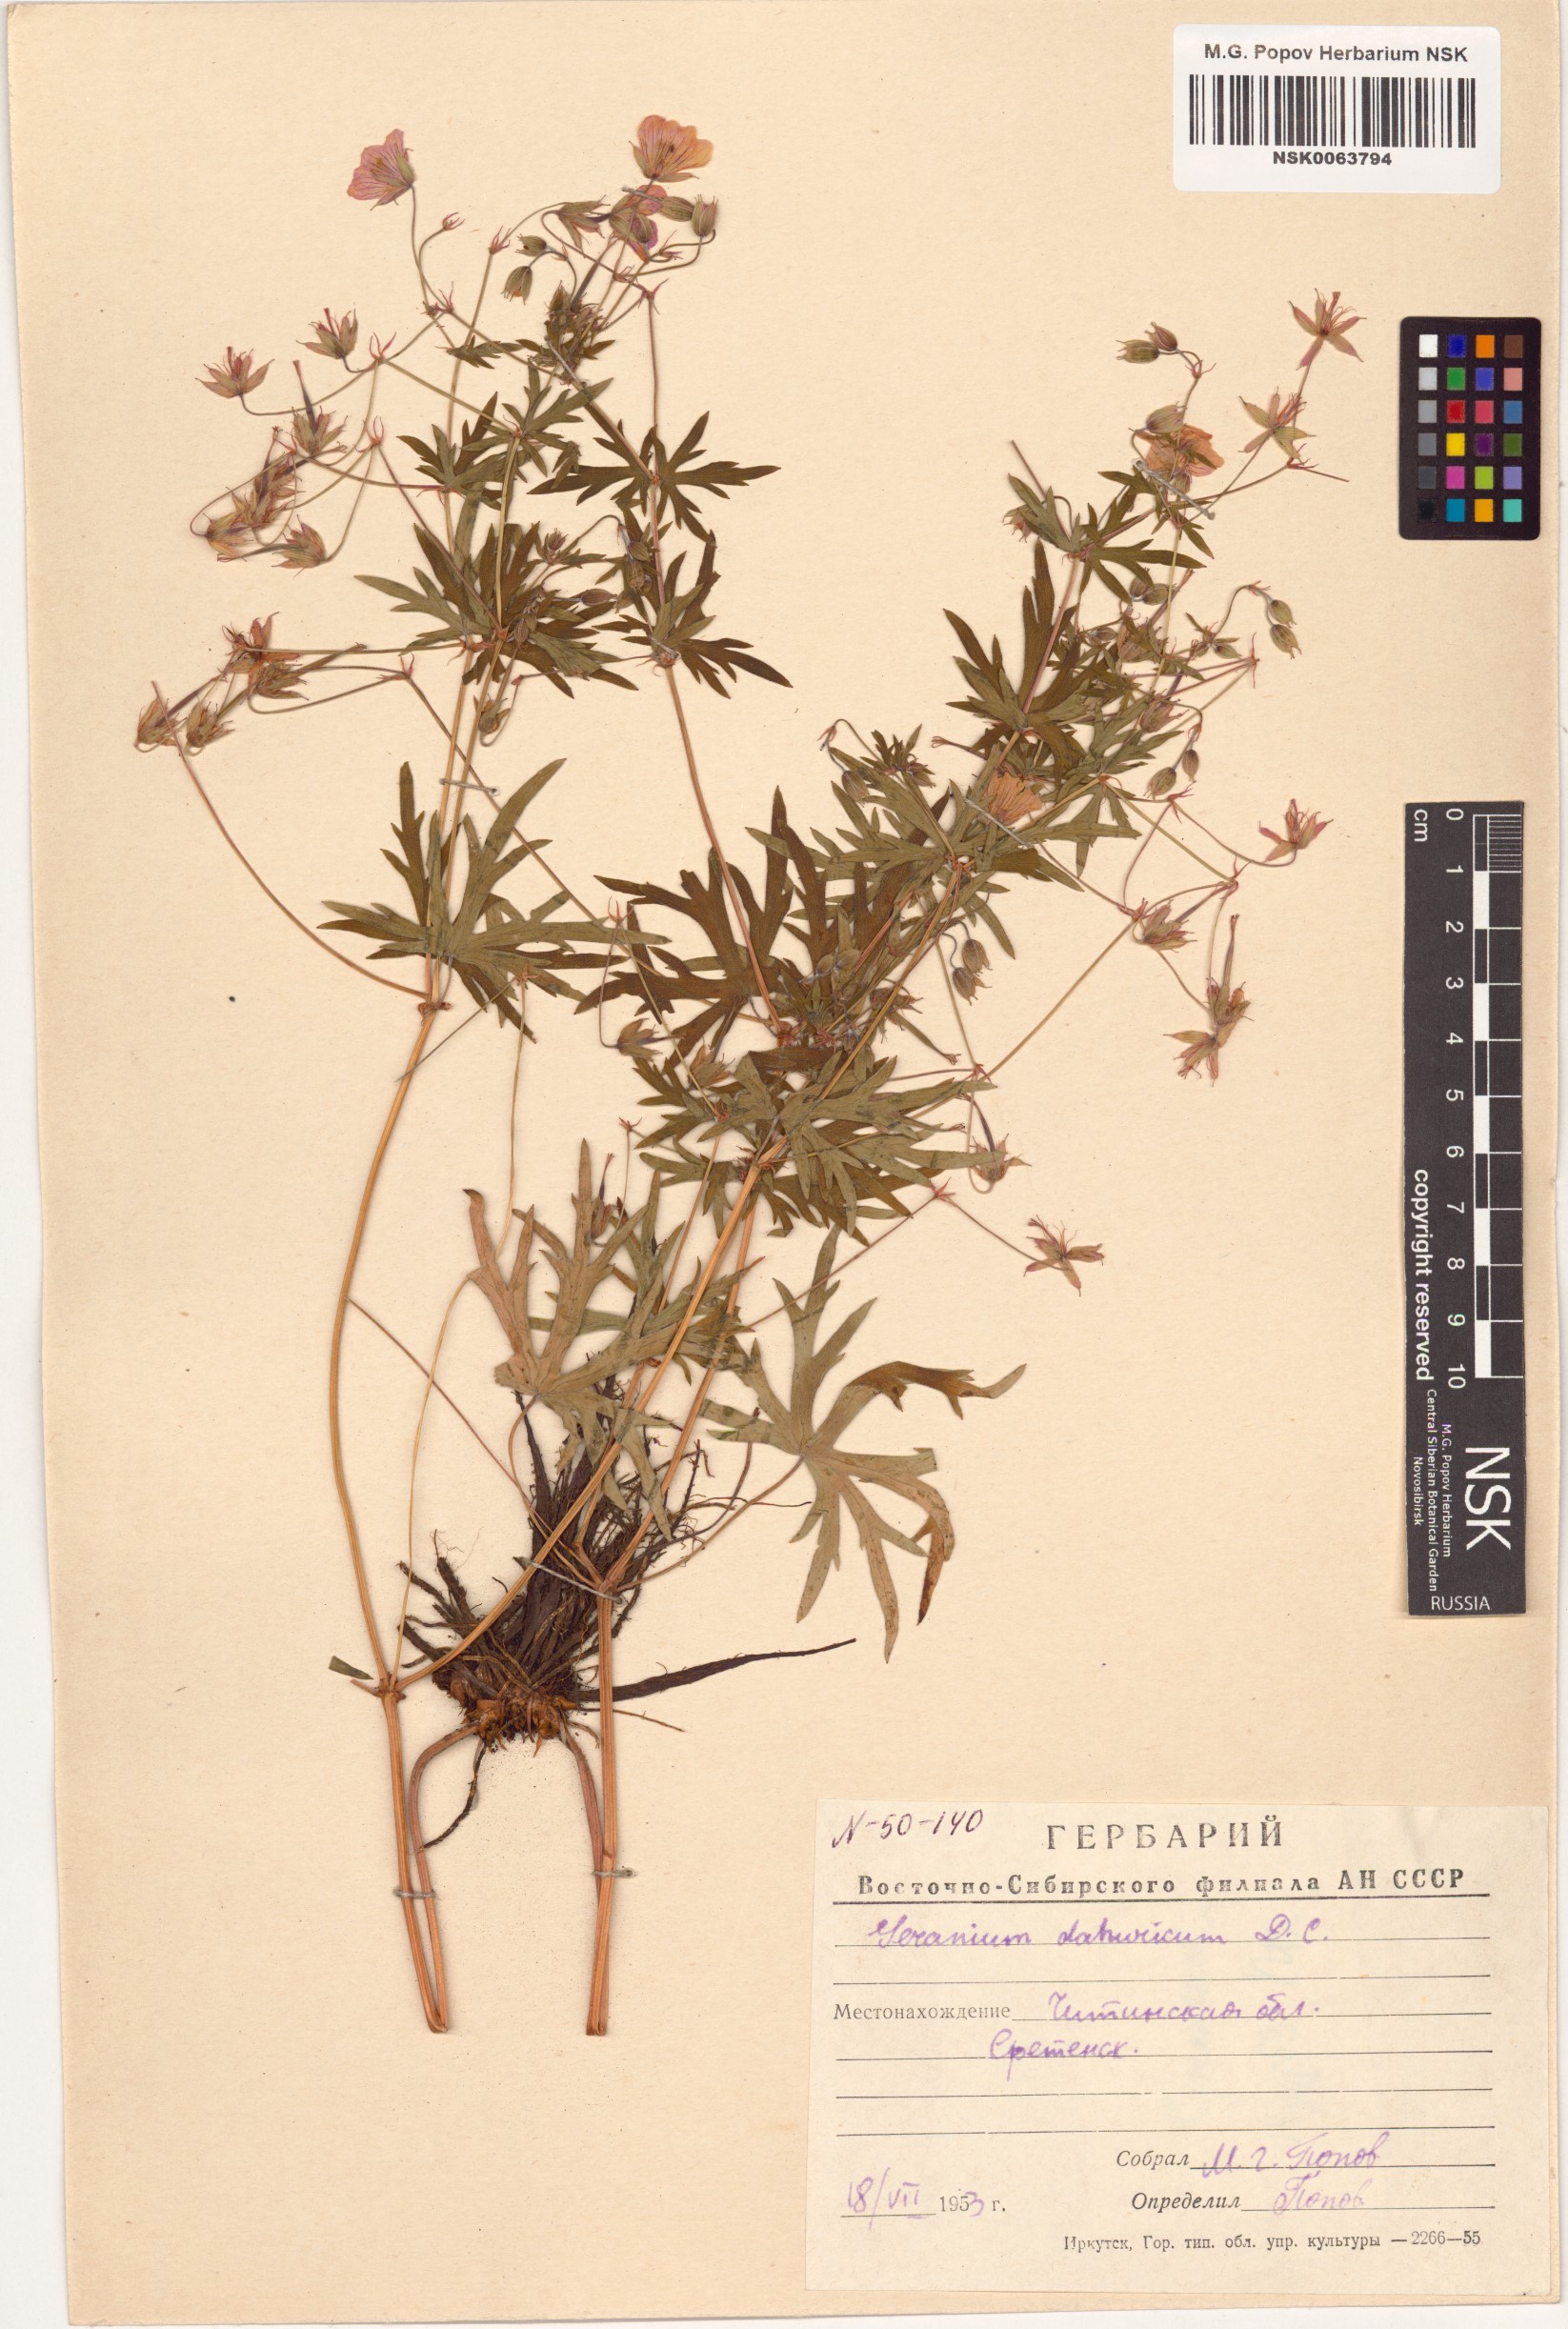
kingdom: Plantae
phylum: Tracheophyta
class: Magnoliopsida
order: Geraniales
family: Geraniaceae
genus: Geranium
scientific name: Geranium dahuricum
